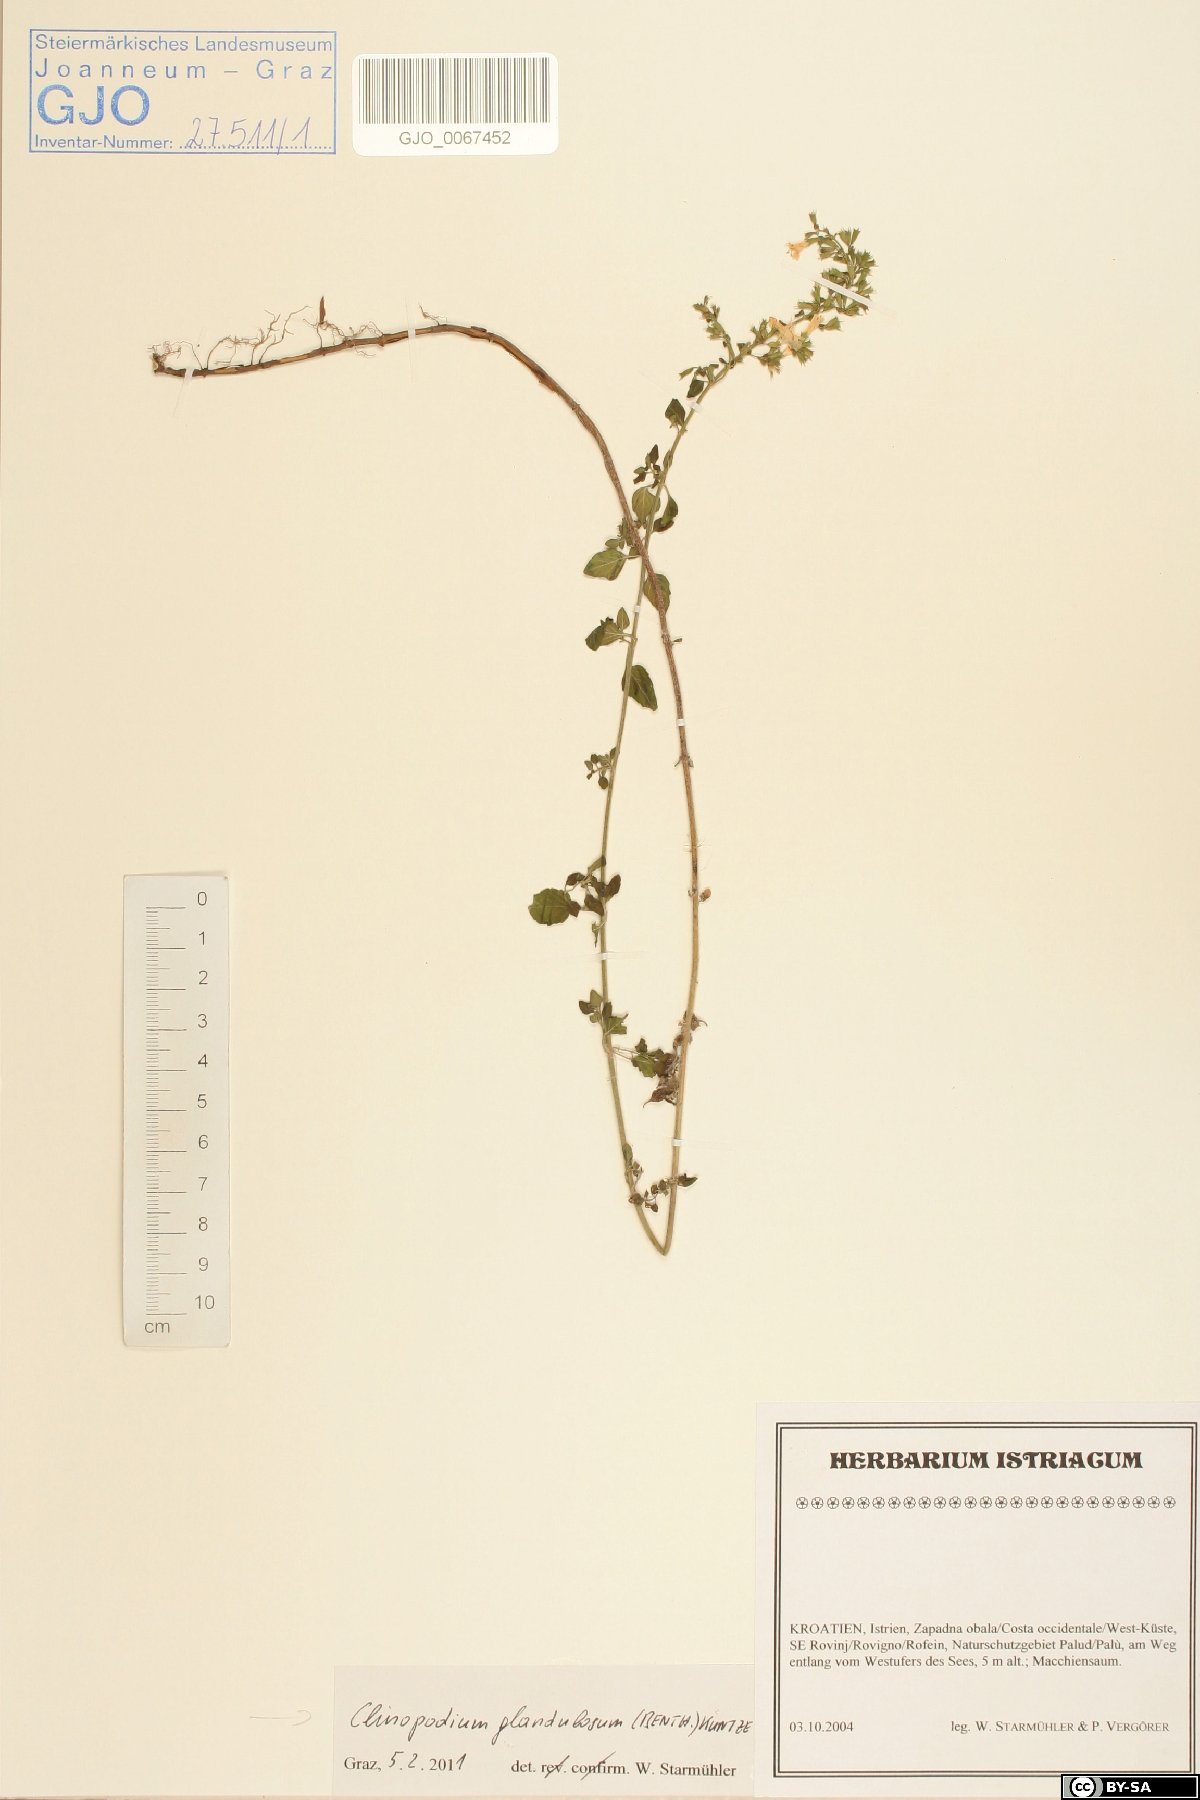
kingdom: Plantae
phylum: Tracheophyta
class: Magnoliopsida
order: Lamiales
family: Lamiaceae
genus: Clinopodium
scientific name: Clinopodium nepeta
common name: Lesser calamint
